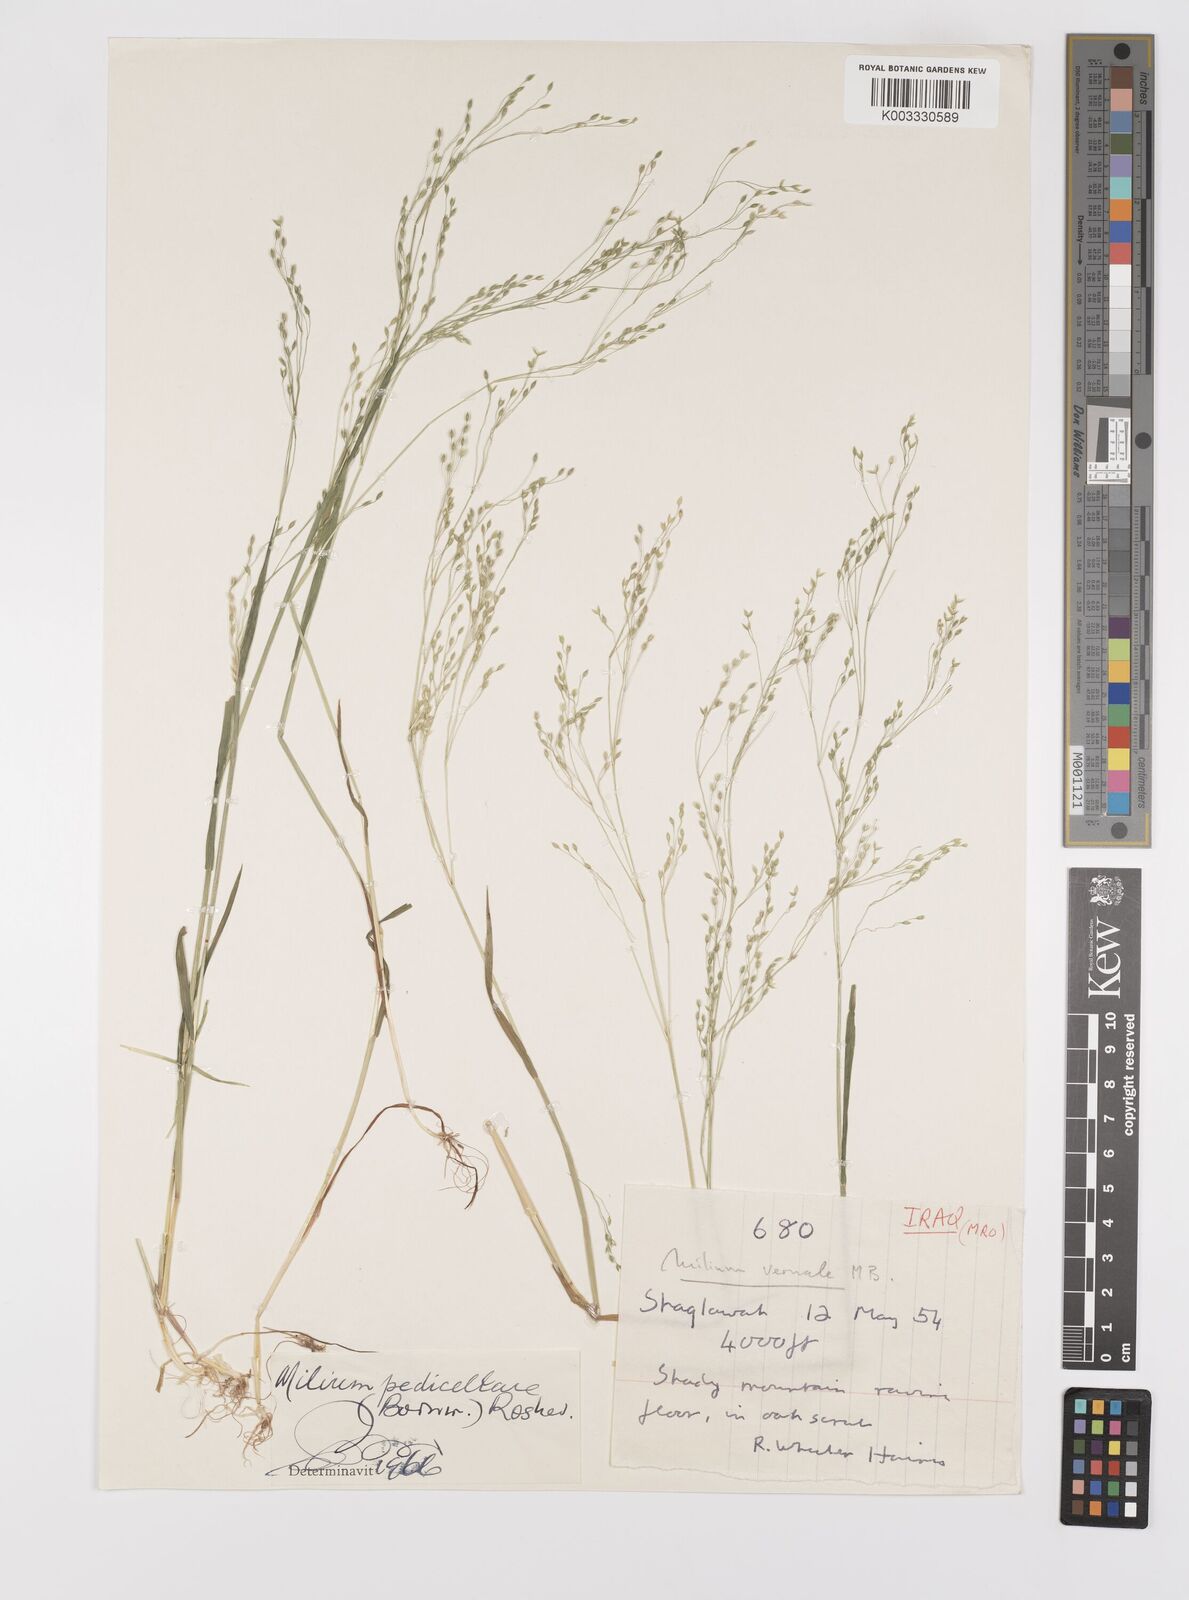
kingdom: Plantae
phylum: Tracheophyta
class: Liliopsida
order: Poales
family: Poaceae
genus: Milium
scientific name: Milium pedicellare
